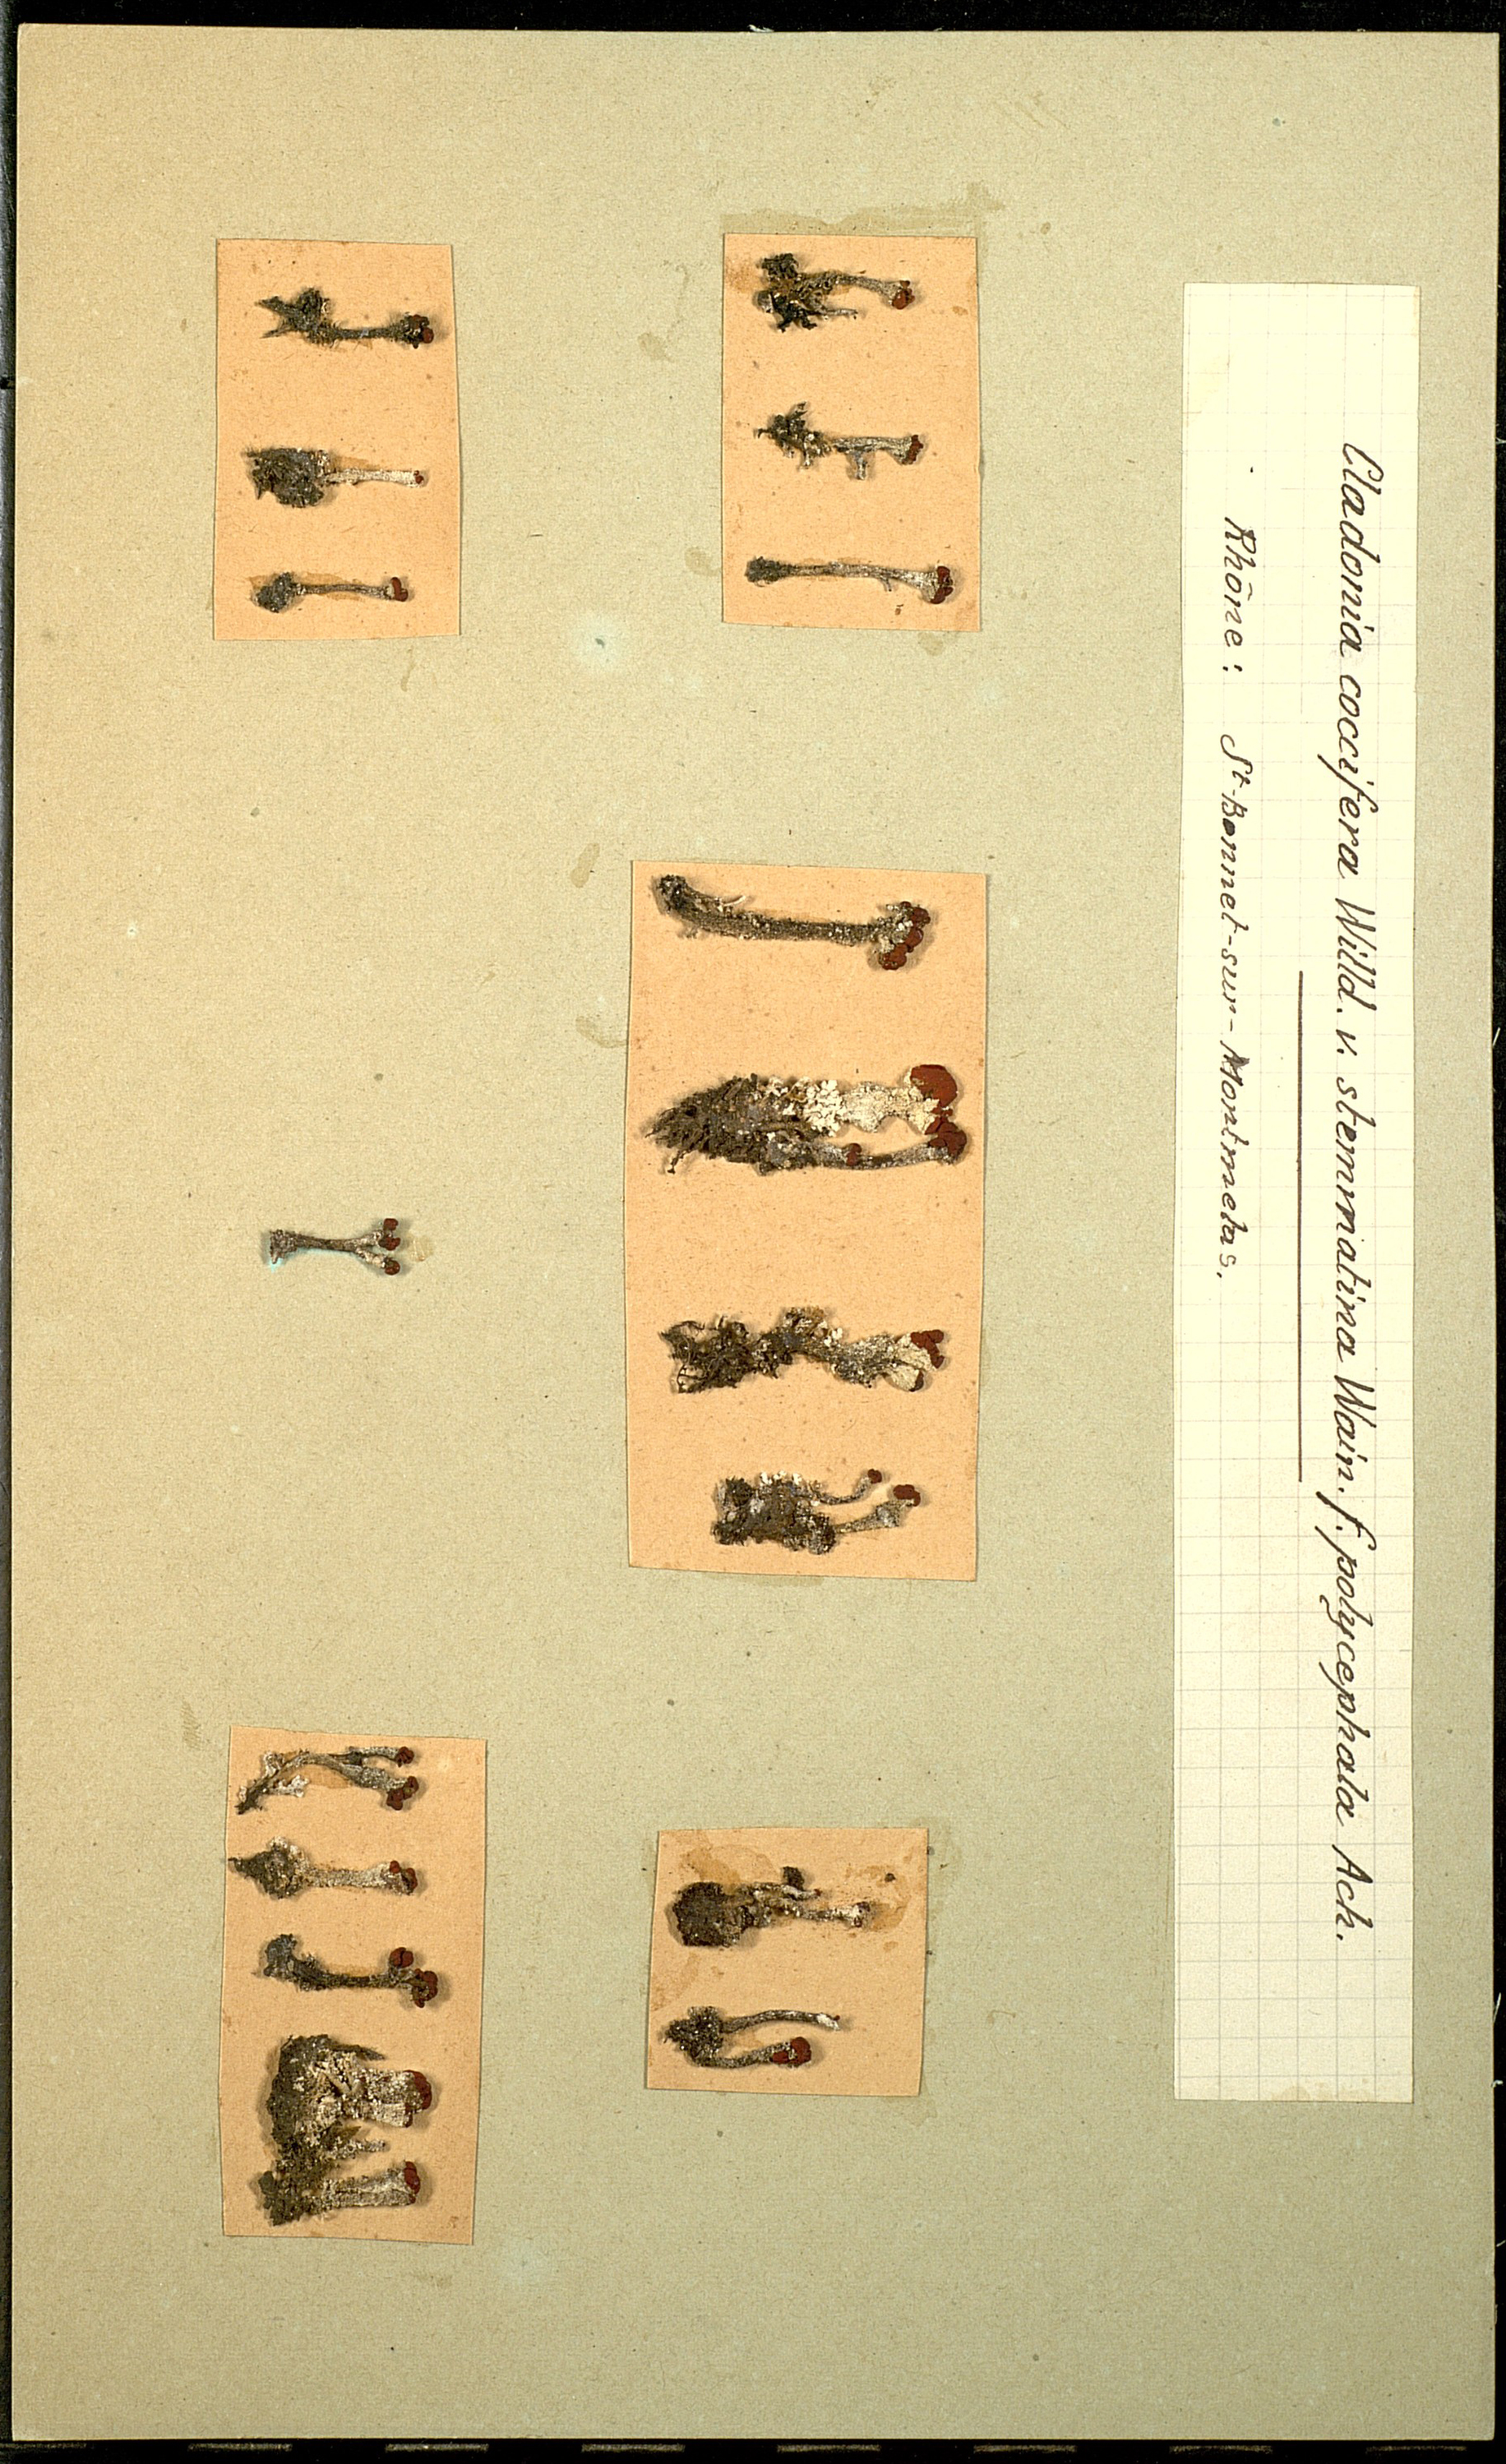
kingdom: Fungi
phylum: Ascomycota
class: Lecanoromycetes
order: Lecanorales
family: Cladoniaceae
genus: Cladonia
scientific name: Cladonia coccifera
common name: Scarlet-cup lichen
